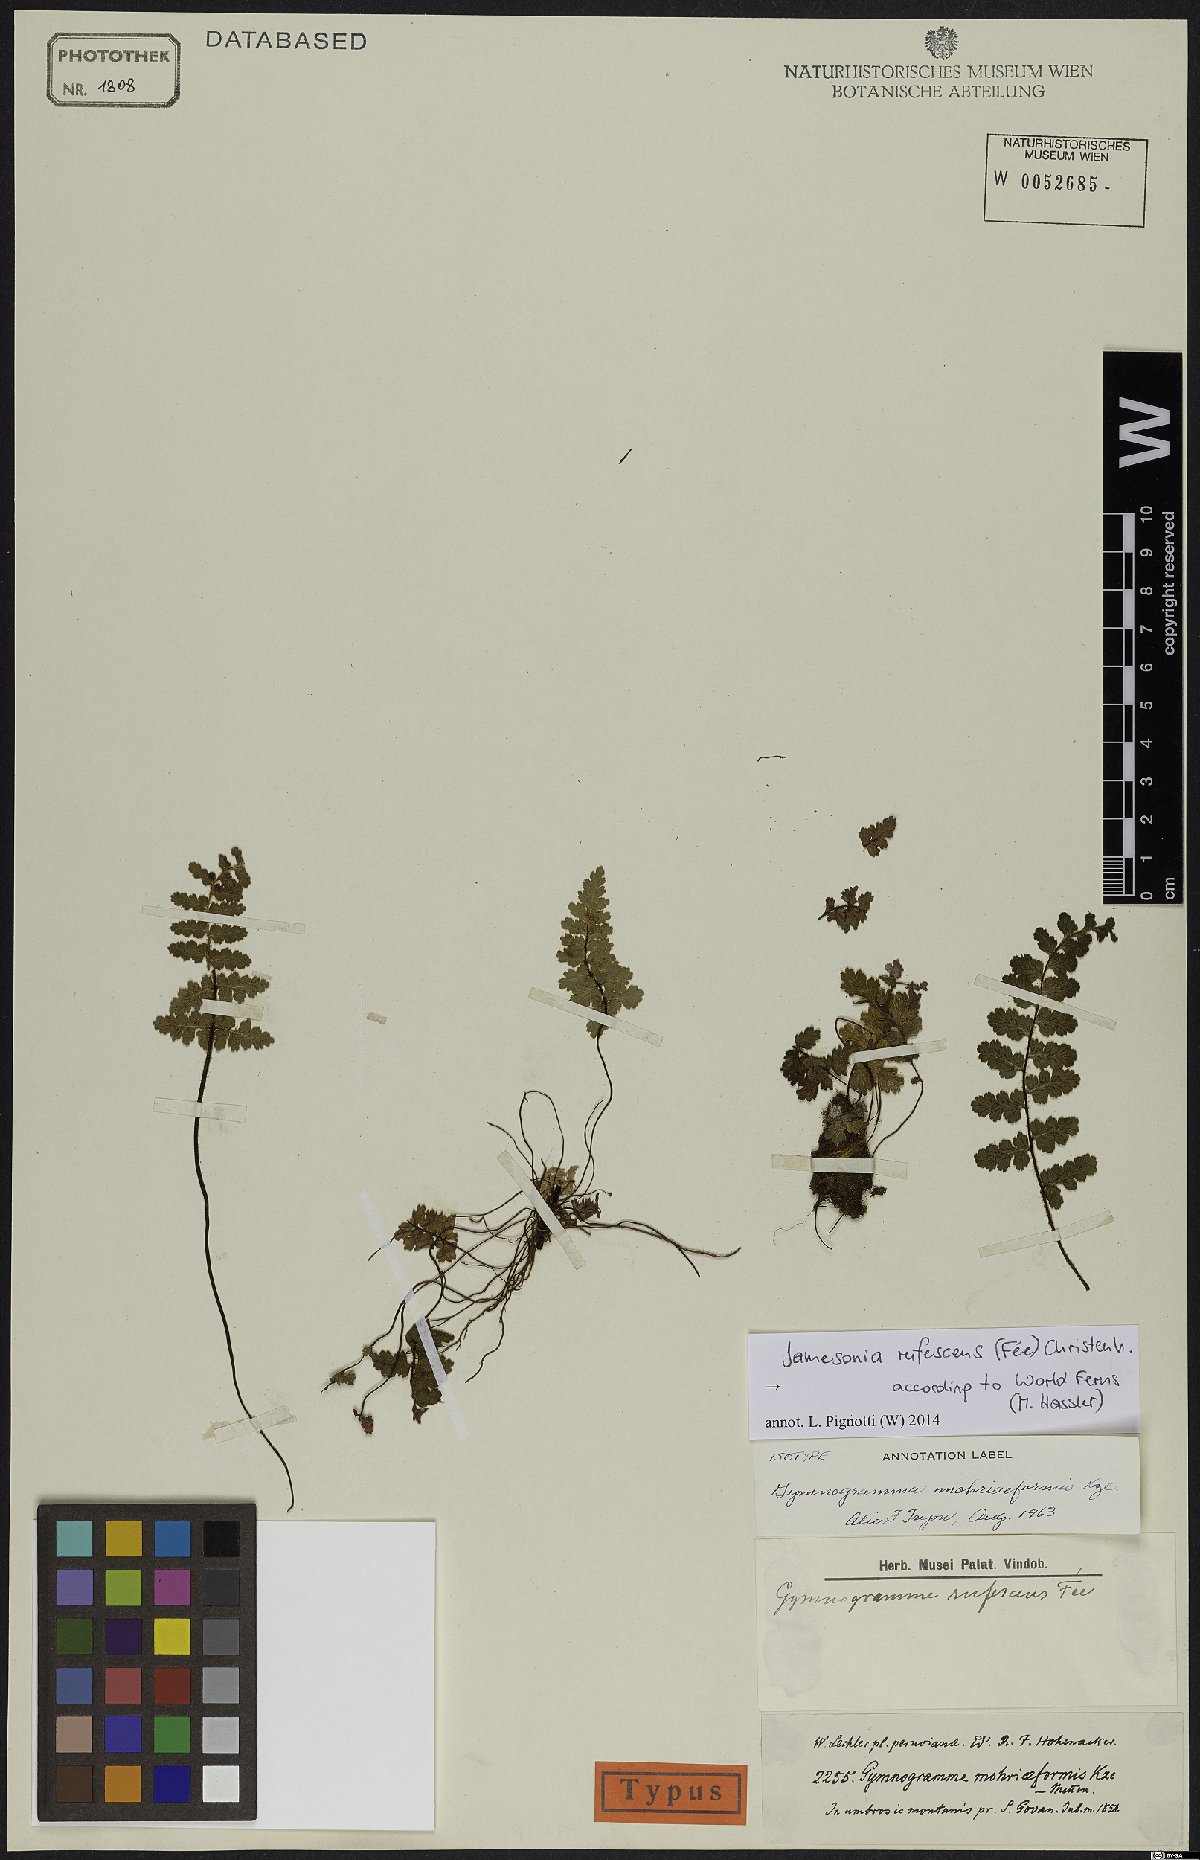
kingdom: Plantae
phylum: Tracheophyta
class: Polypodiopsida
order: Polypodiales
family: Pteridaceae
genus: Jamesonia
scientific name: Jamesonia rufescens
